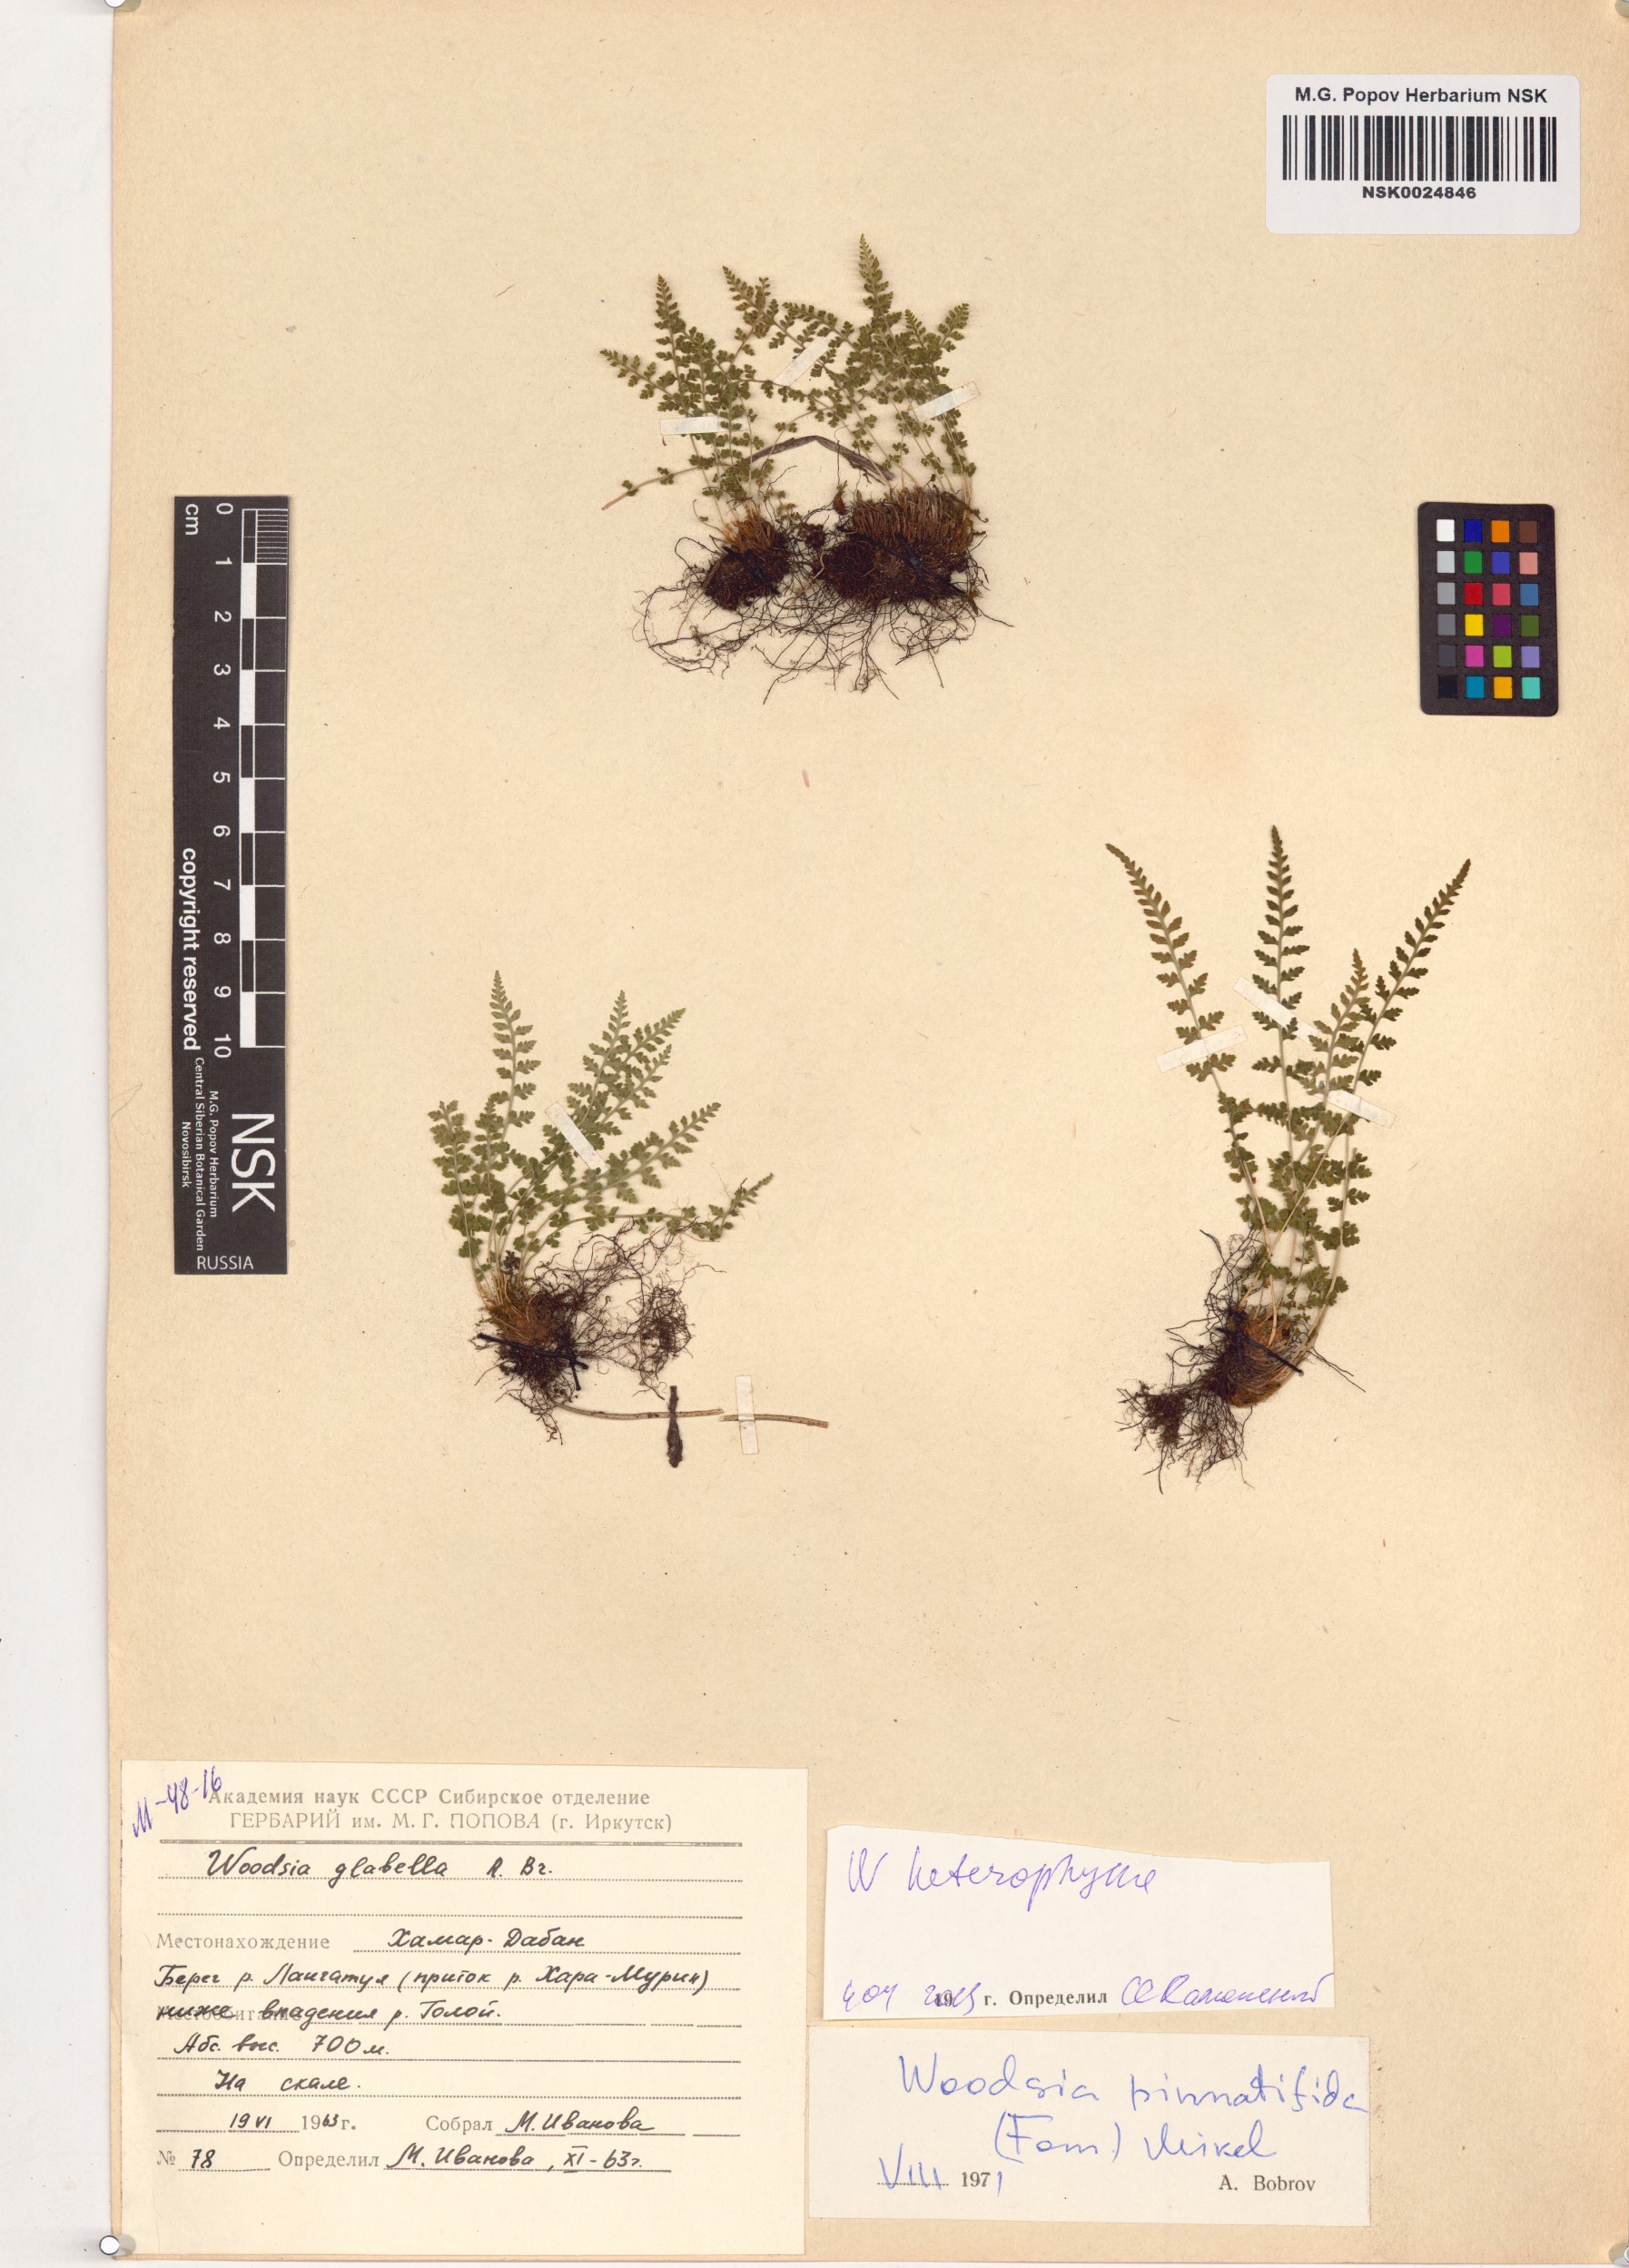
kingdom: Plantae
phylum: Tracheophyta
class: Polypodiopsida
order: Polypodiales
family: Woodsiaceae
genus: Woodsia
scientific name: Woodsia pulchella
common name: Graceful woodsia
